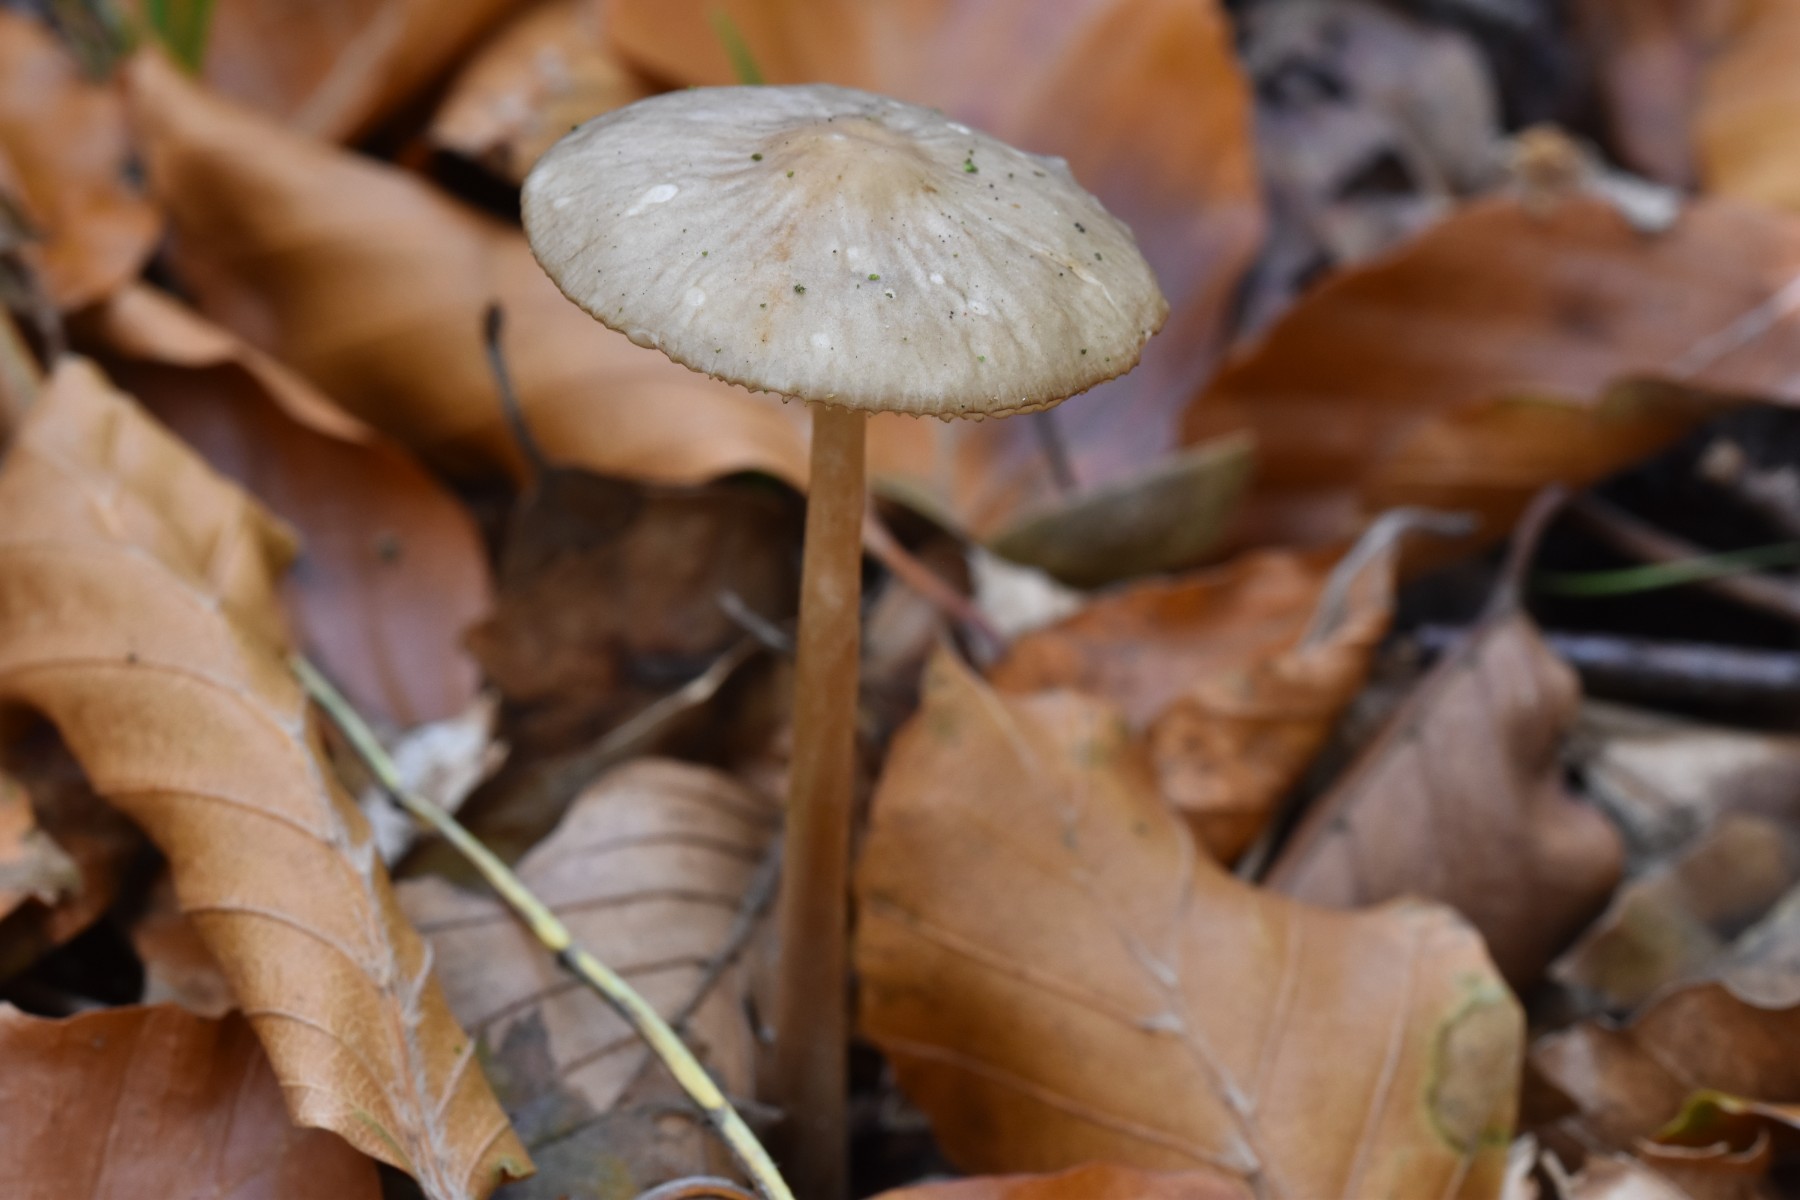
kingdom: Fungi
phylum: Basidiomycota
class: Agaricomycetes
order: Agaricales
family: Physalacriaceae
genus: Hymenopellis
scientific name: Hymenopellis radicata
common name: almindelig pælerodshat
